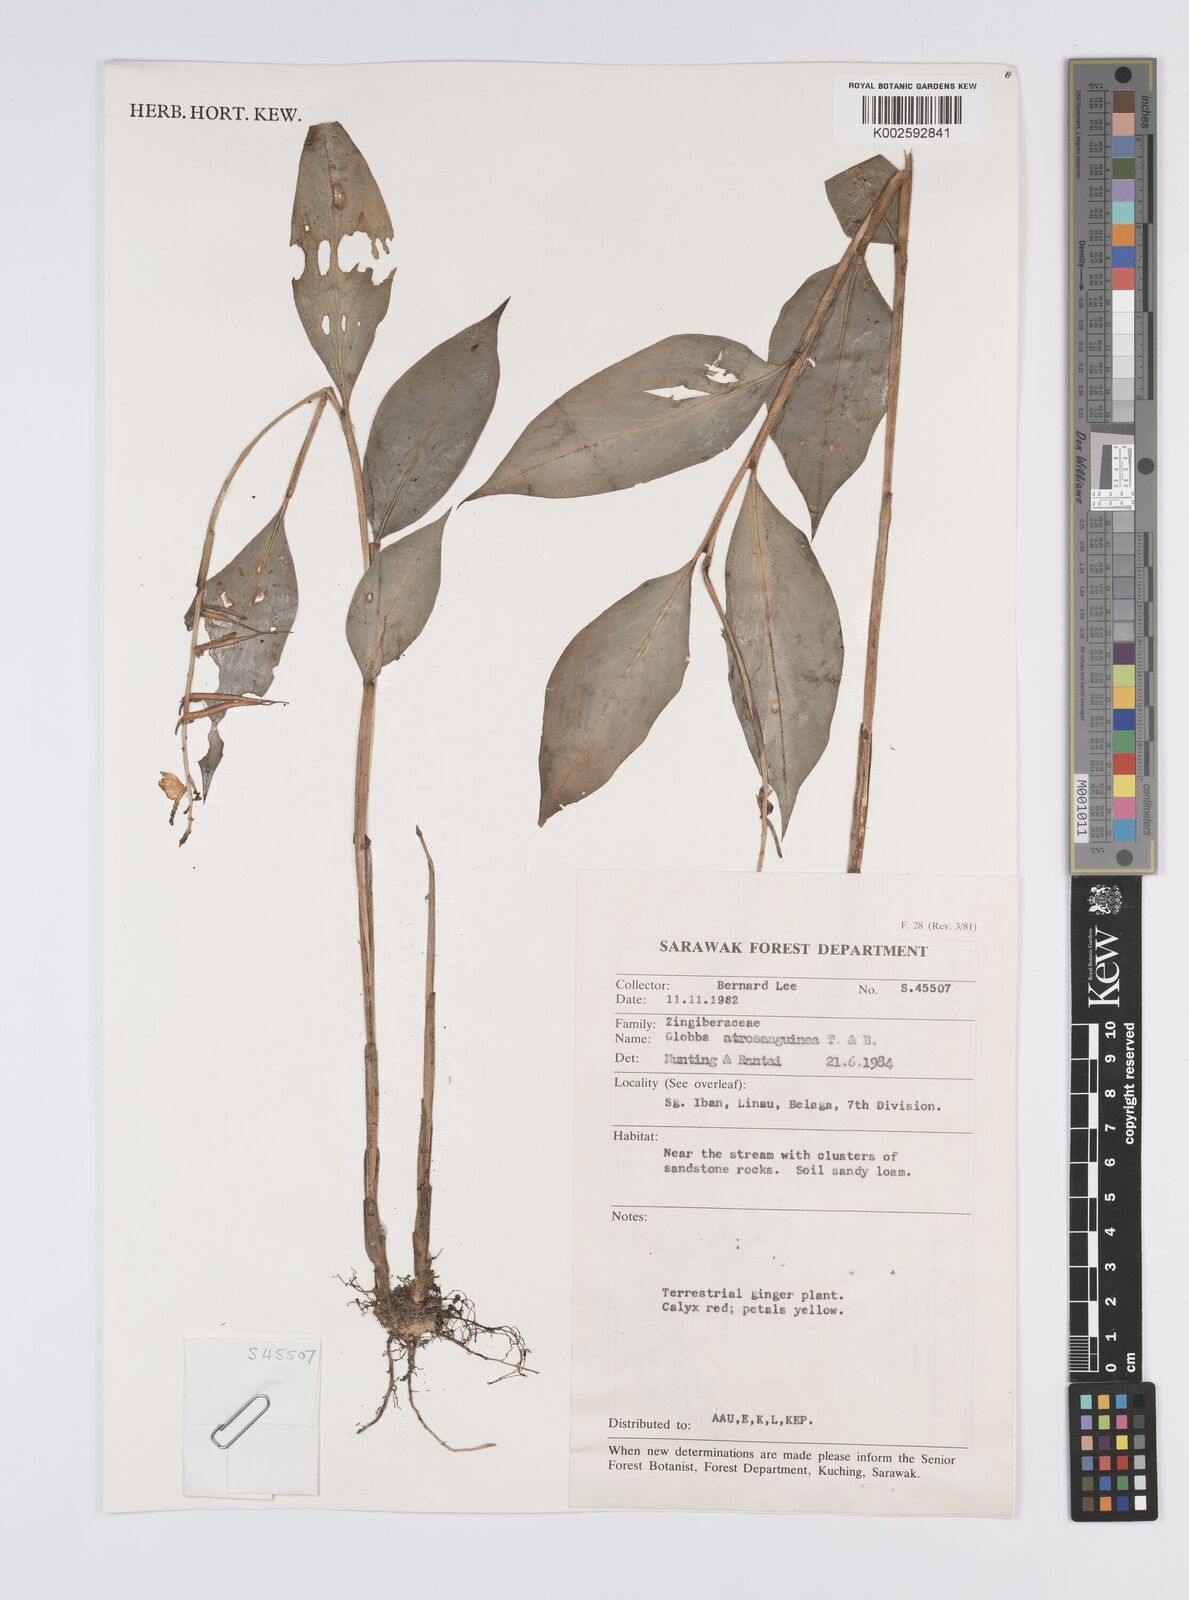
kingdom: Plantae
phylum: Tracheophyta
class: Liliopsida
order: Zingiberales
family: Zingiberaceae
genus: Globba
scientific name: Globba atrosanguinea
